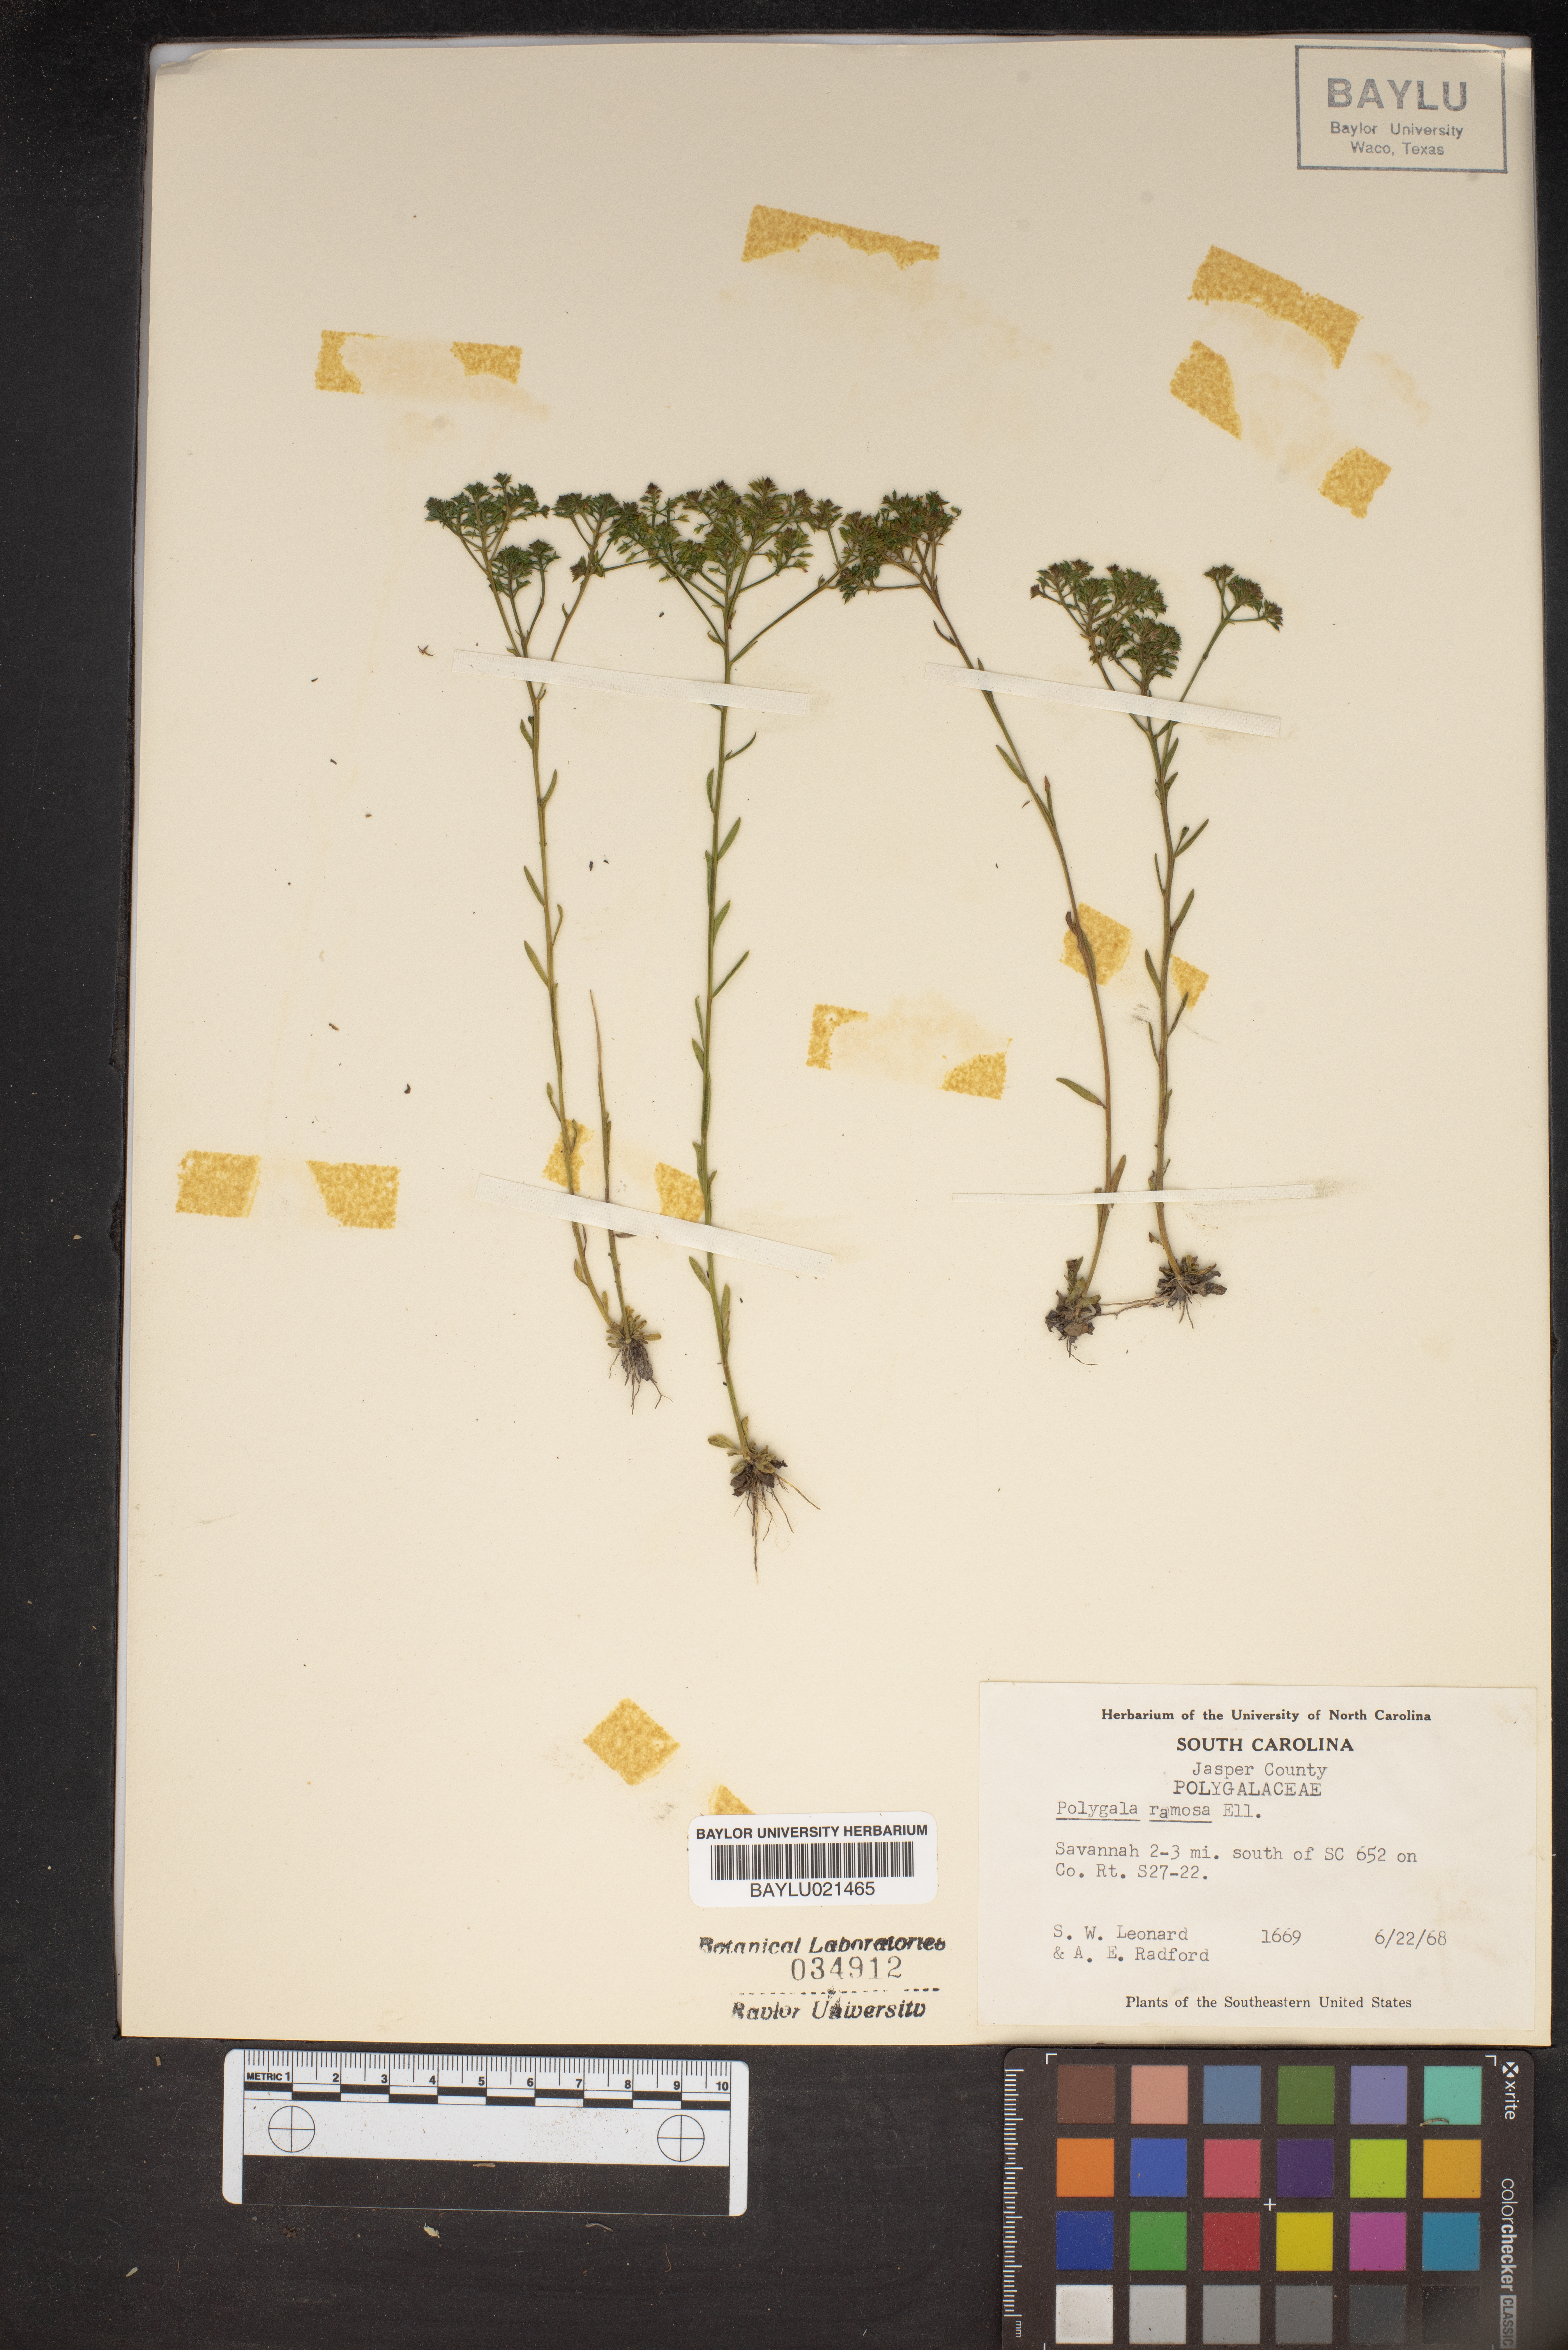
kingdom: Plantae
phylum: Tracheophyta
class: Magnoliopsida
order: Fabales
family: Polygalaceae
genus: Polygala
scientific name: Polygala ramosa
